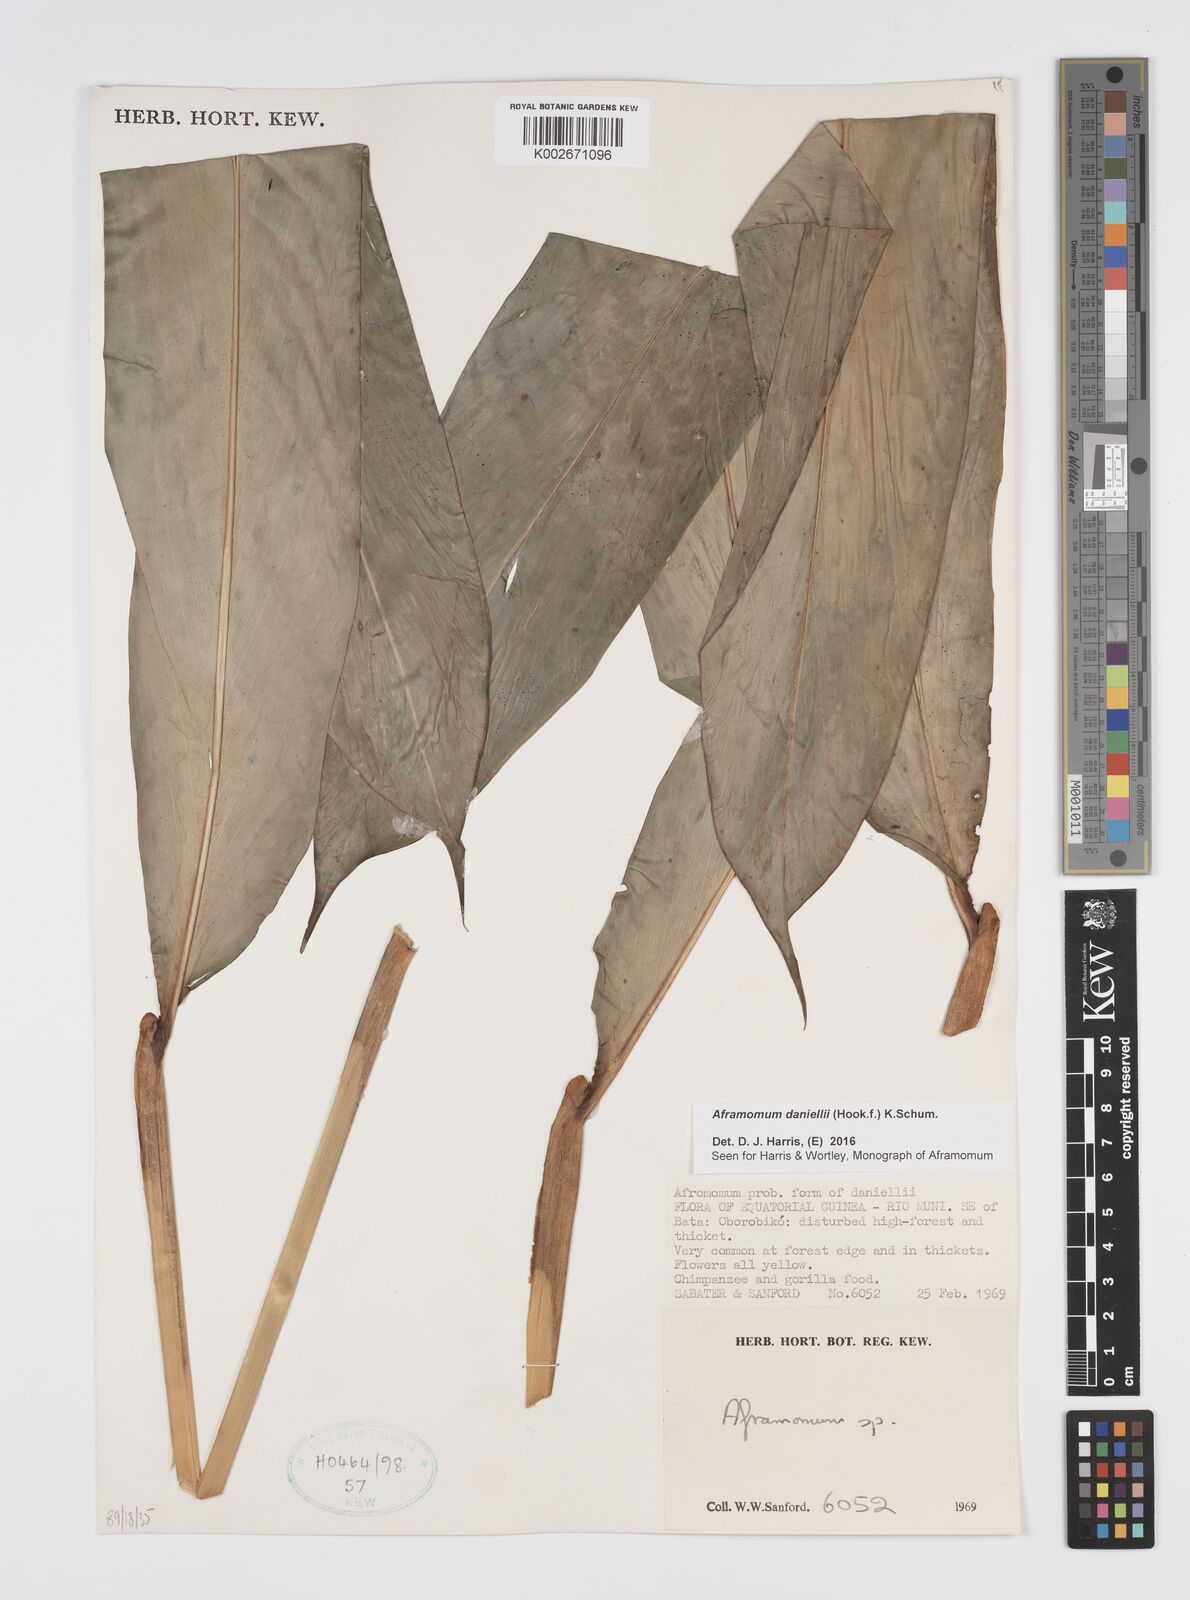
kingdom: Plantae
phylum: Tracheophyta
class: Liliopsida
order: Zingiberales
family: Zingiberaceae
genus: Aframomum
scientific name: Aframomum daniellii
